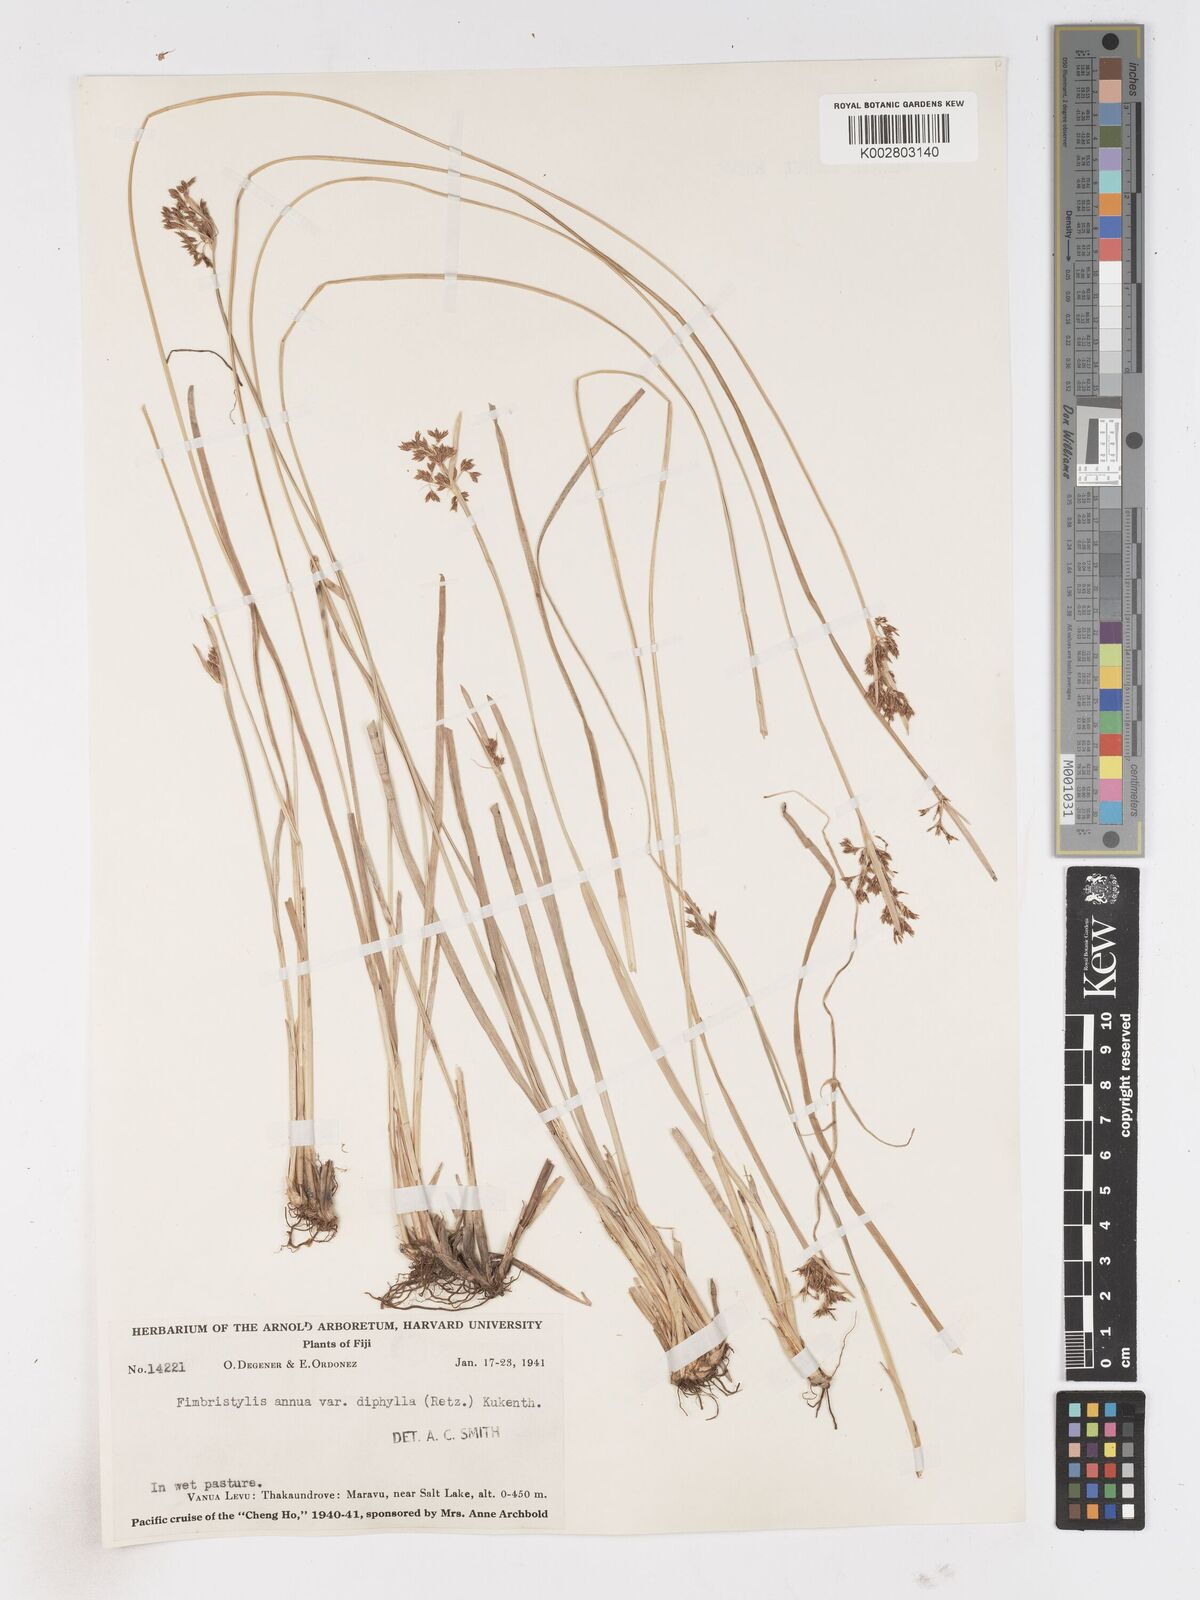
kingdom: Plantae
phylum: Tracheophyta
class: Liliopsida
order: Poales
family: Cyperaceae
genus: Fimbristylis
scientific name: Fimbristylis complanata
